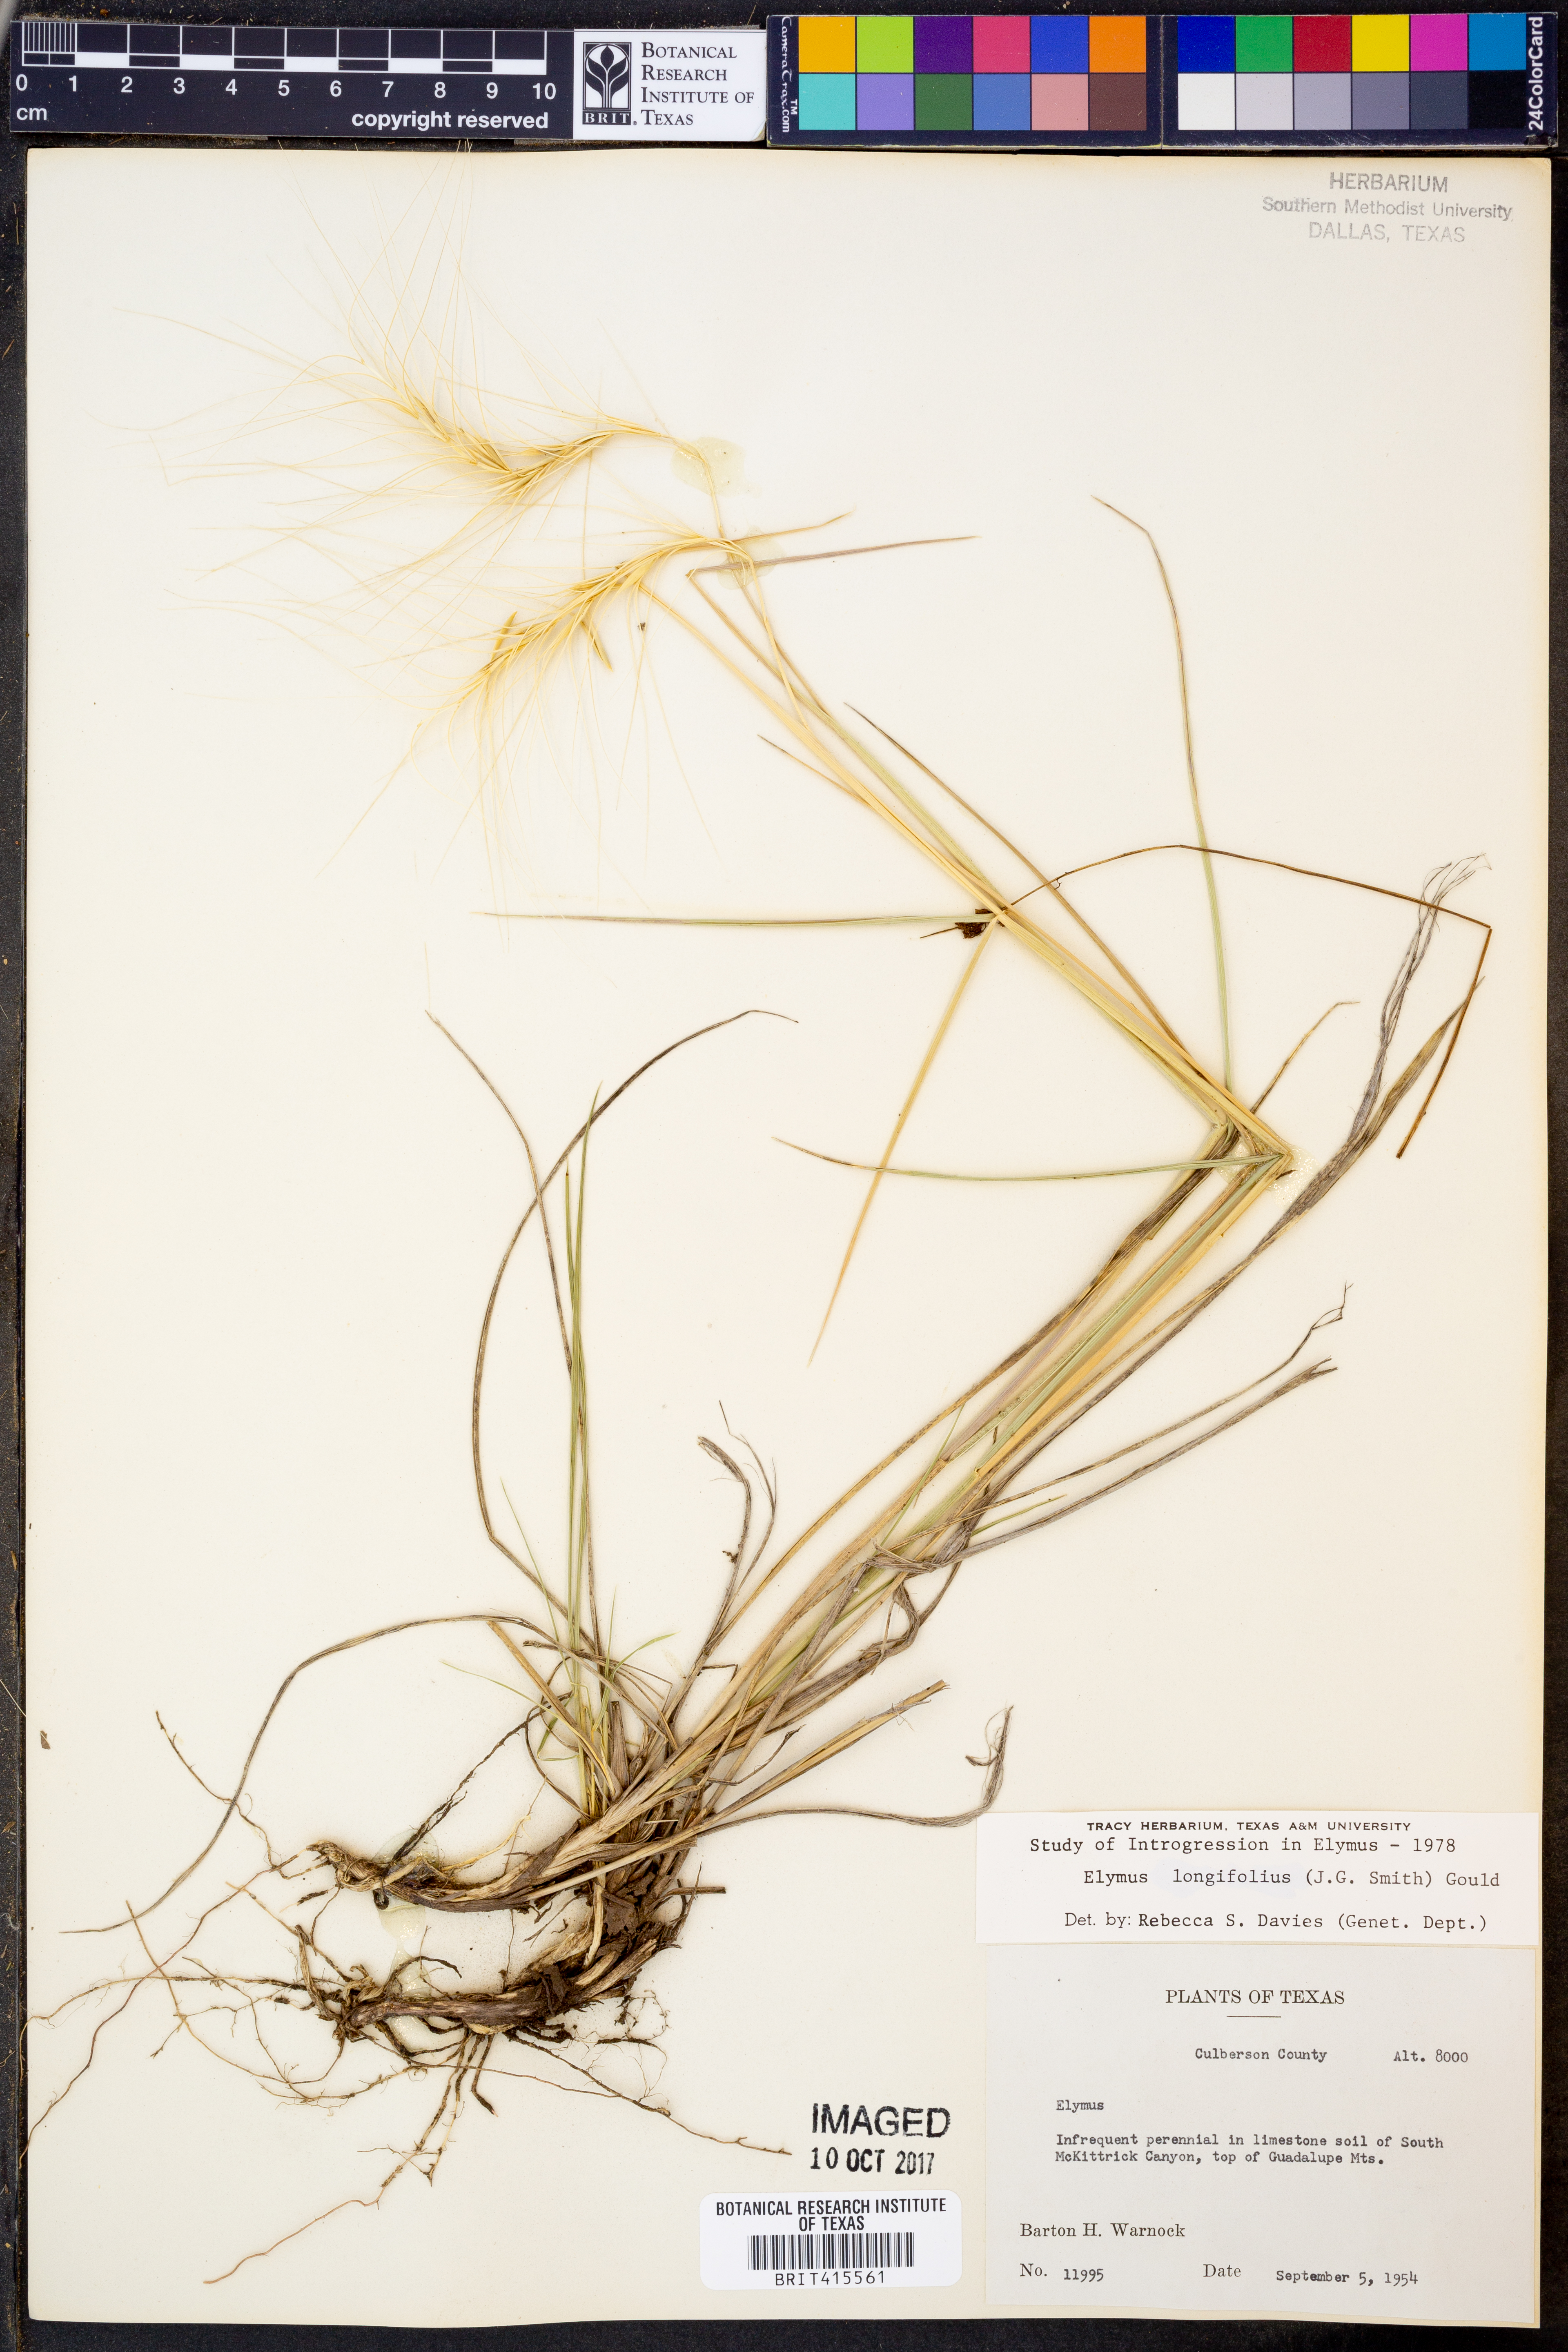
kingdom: Plantae
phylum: Tracheophyta
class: Liliopsida
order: Poales
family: Poaceae
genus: Elymus
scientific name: Elymus longifolius
